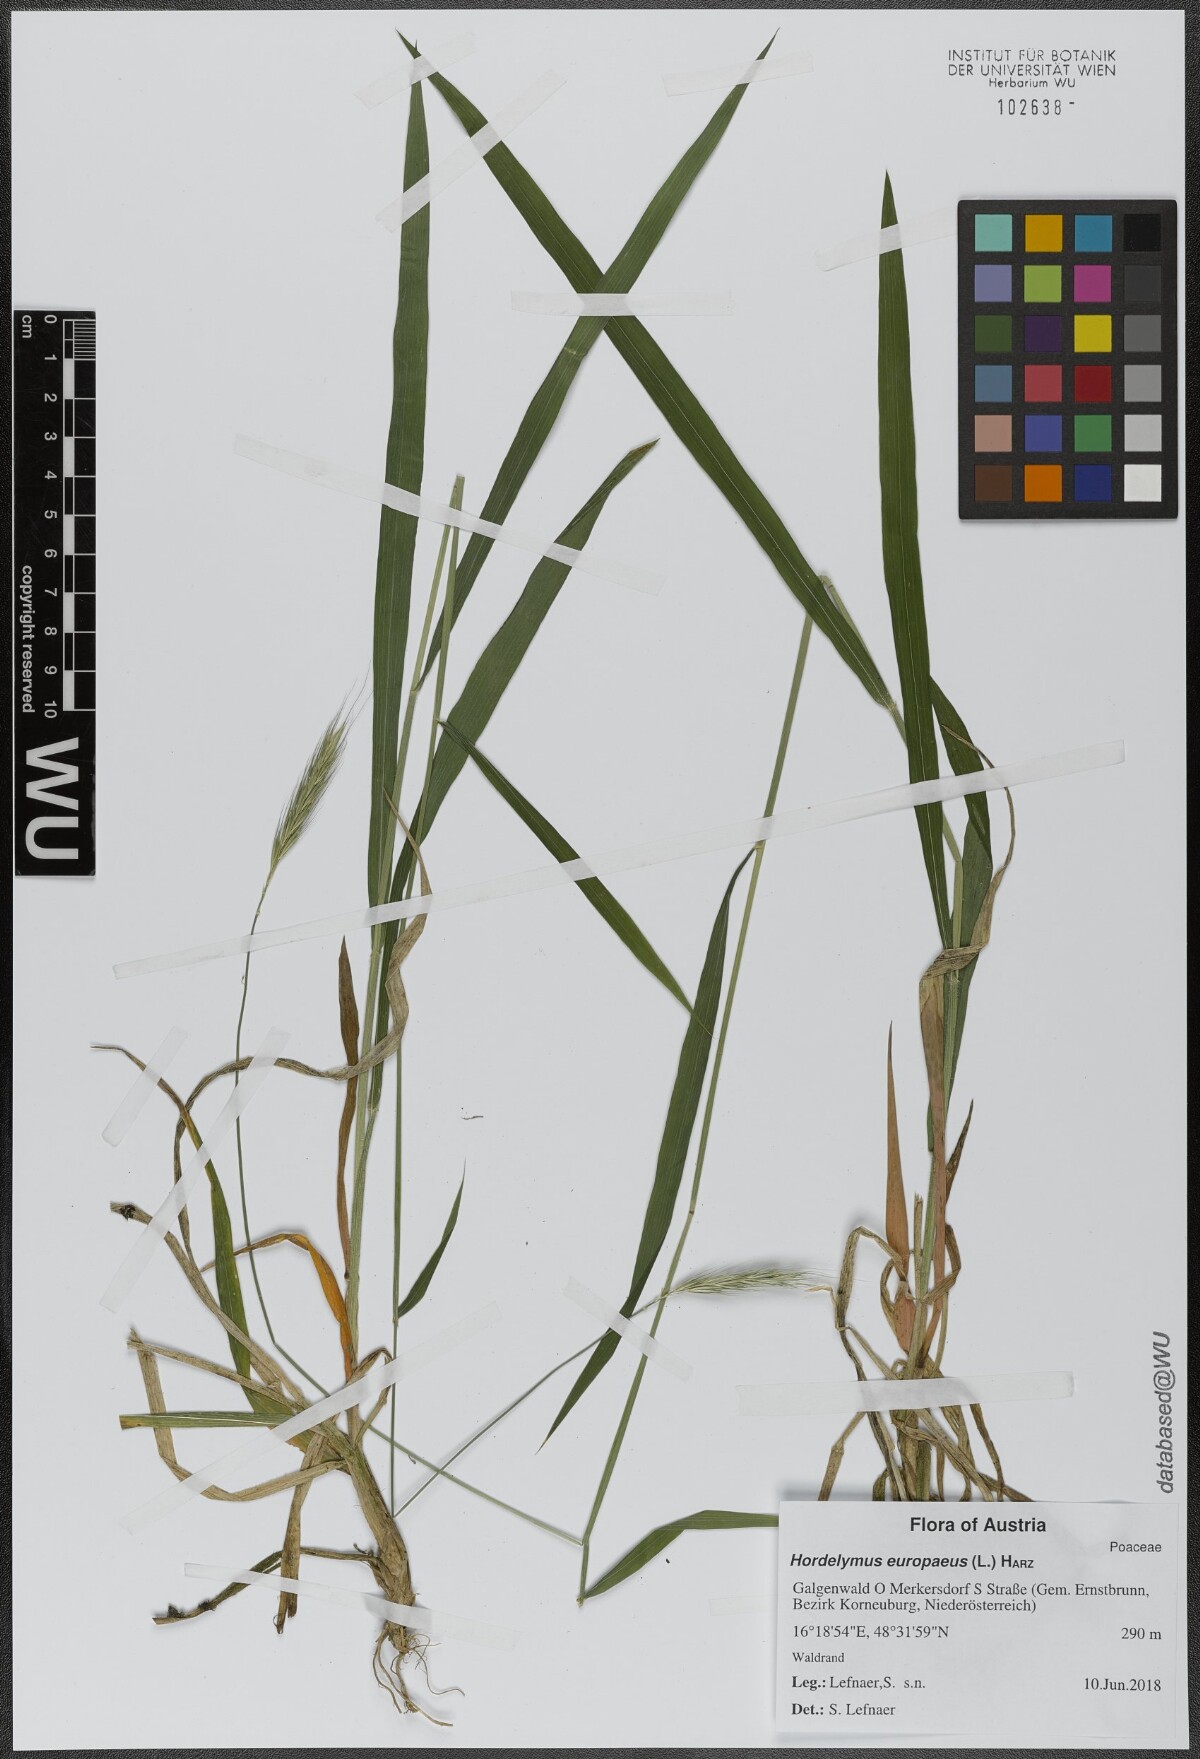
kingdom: Plantae
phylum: Tracheophyta
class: Liliopsida
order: Poales
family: Poaceae
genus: Hordelymus
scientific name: Hordelymus europaeus
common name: Wood-barley
